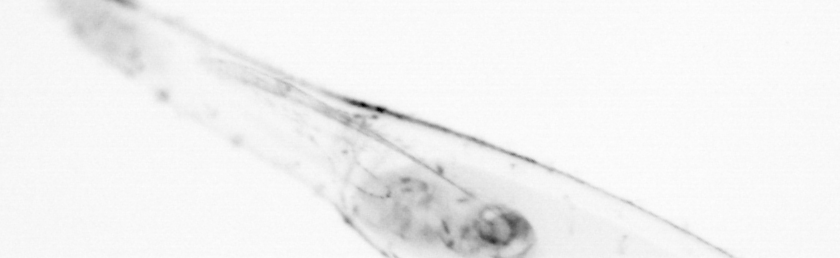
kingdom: Animalia
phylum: Chaetognatha
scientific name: Chaetognatha
